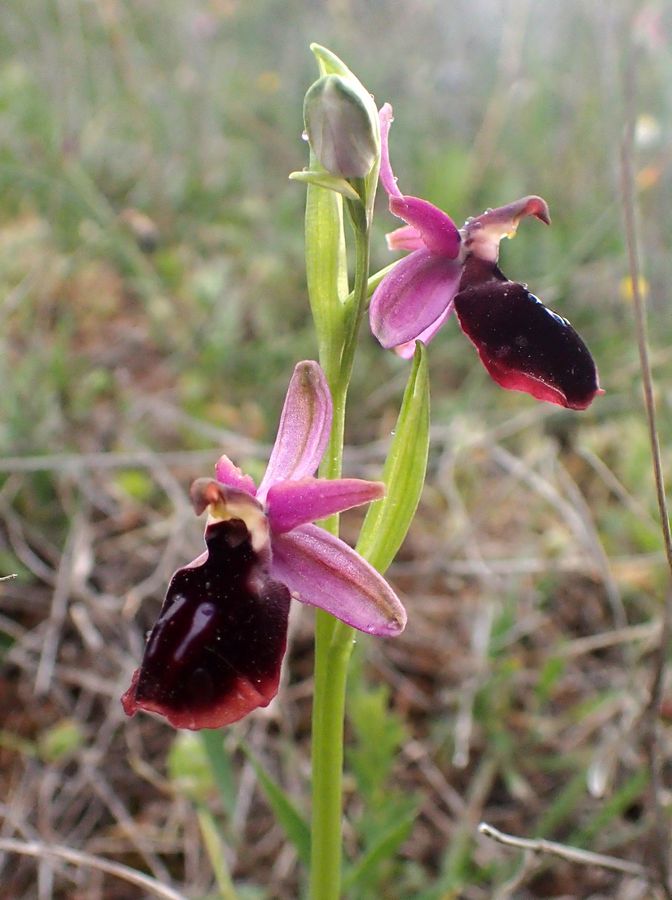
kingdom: Plantae
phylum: Tracheophyta
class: Liliopsida
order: Asparagales
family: Orchidaceae
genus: Ophrys
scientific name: Ophrys sphegodes
